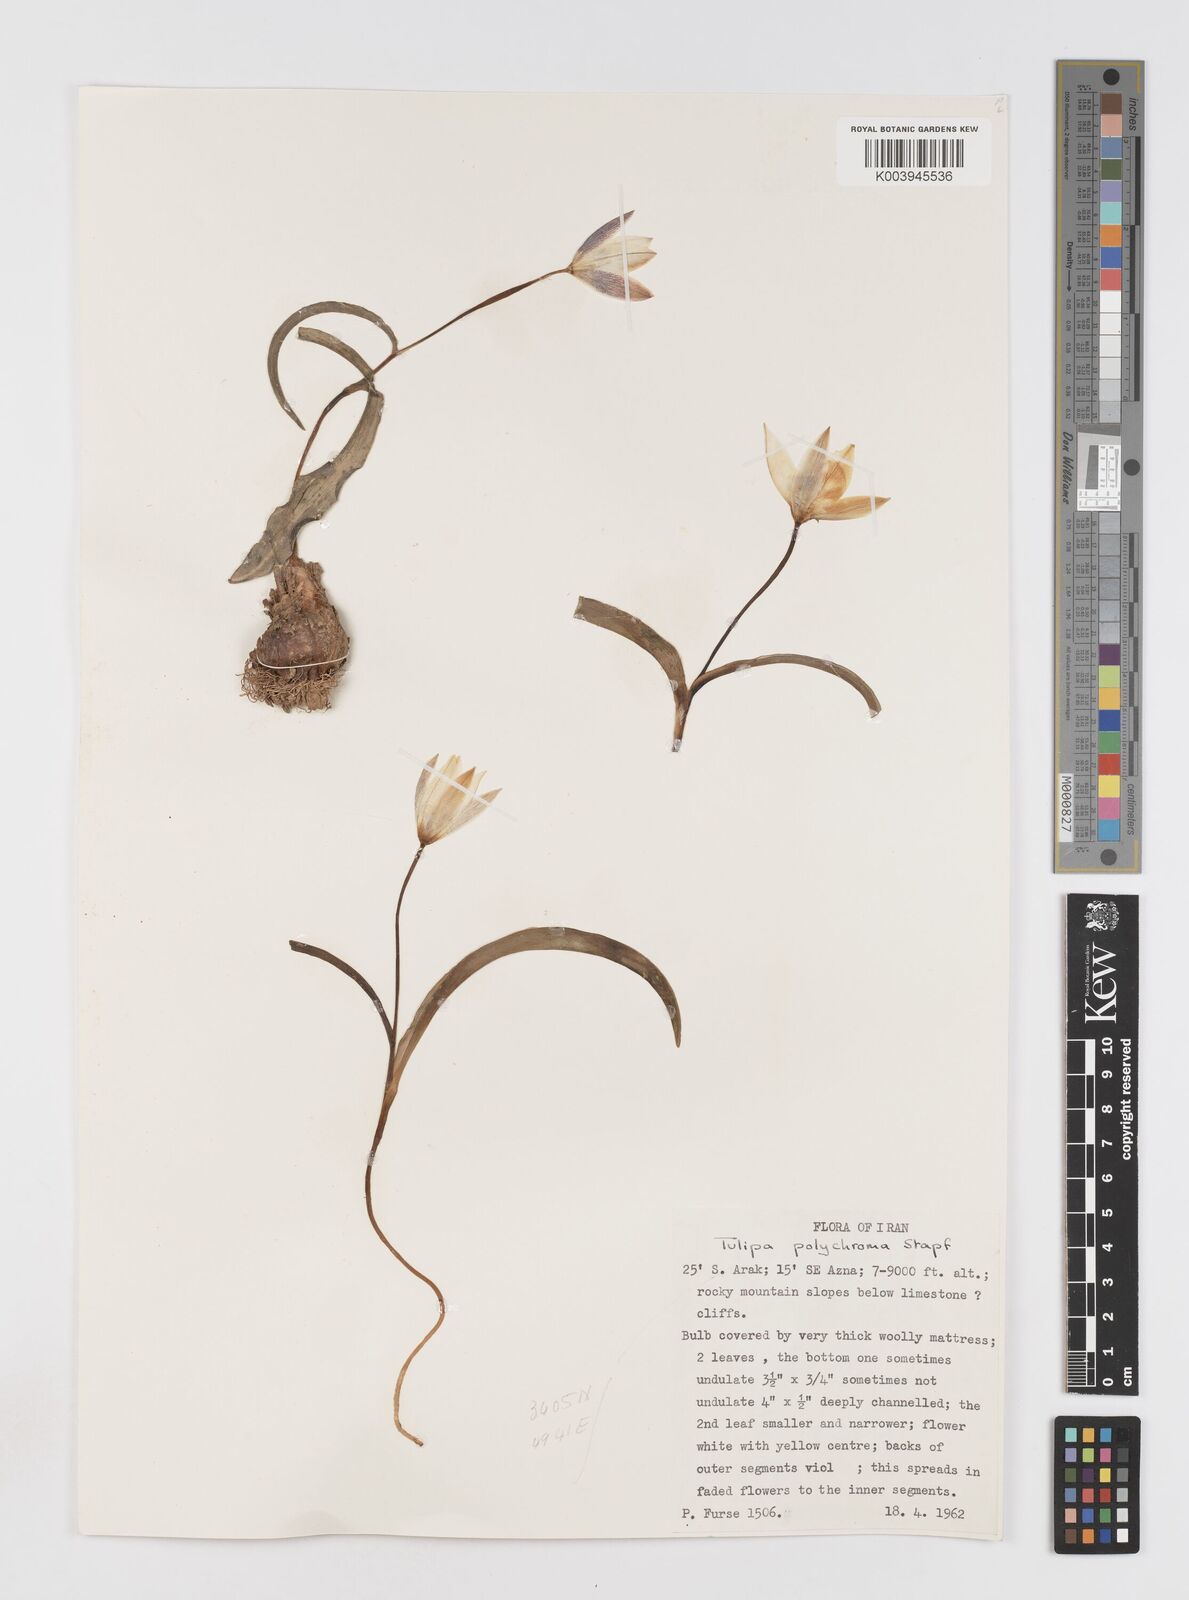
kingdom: Plantae
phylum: Tracheophyta
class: Liliopsida
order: Liliales
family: Liliaceae
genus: Tulipa
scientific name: Tulipa biflora
